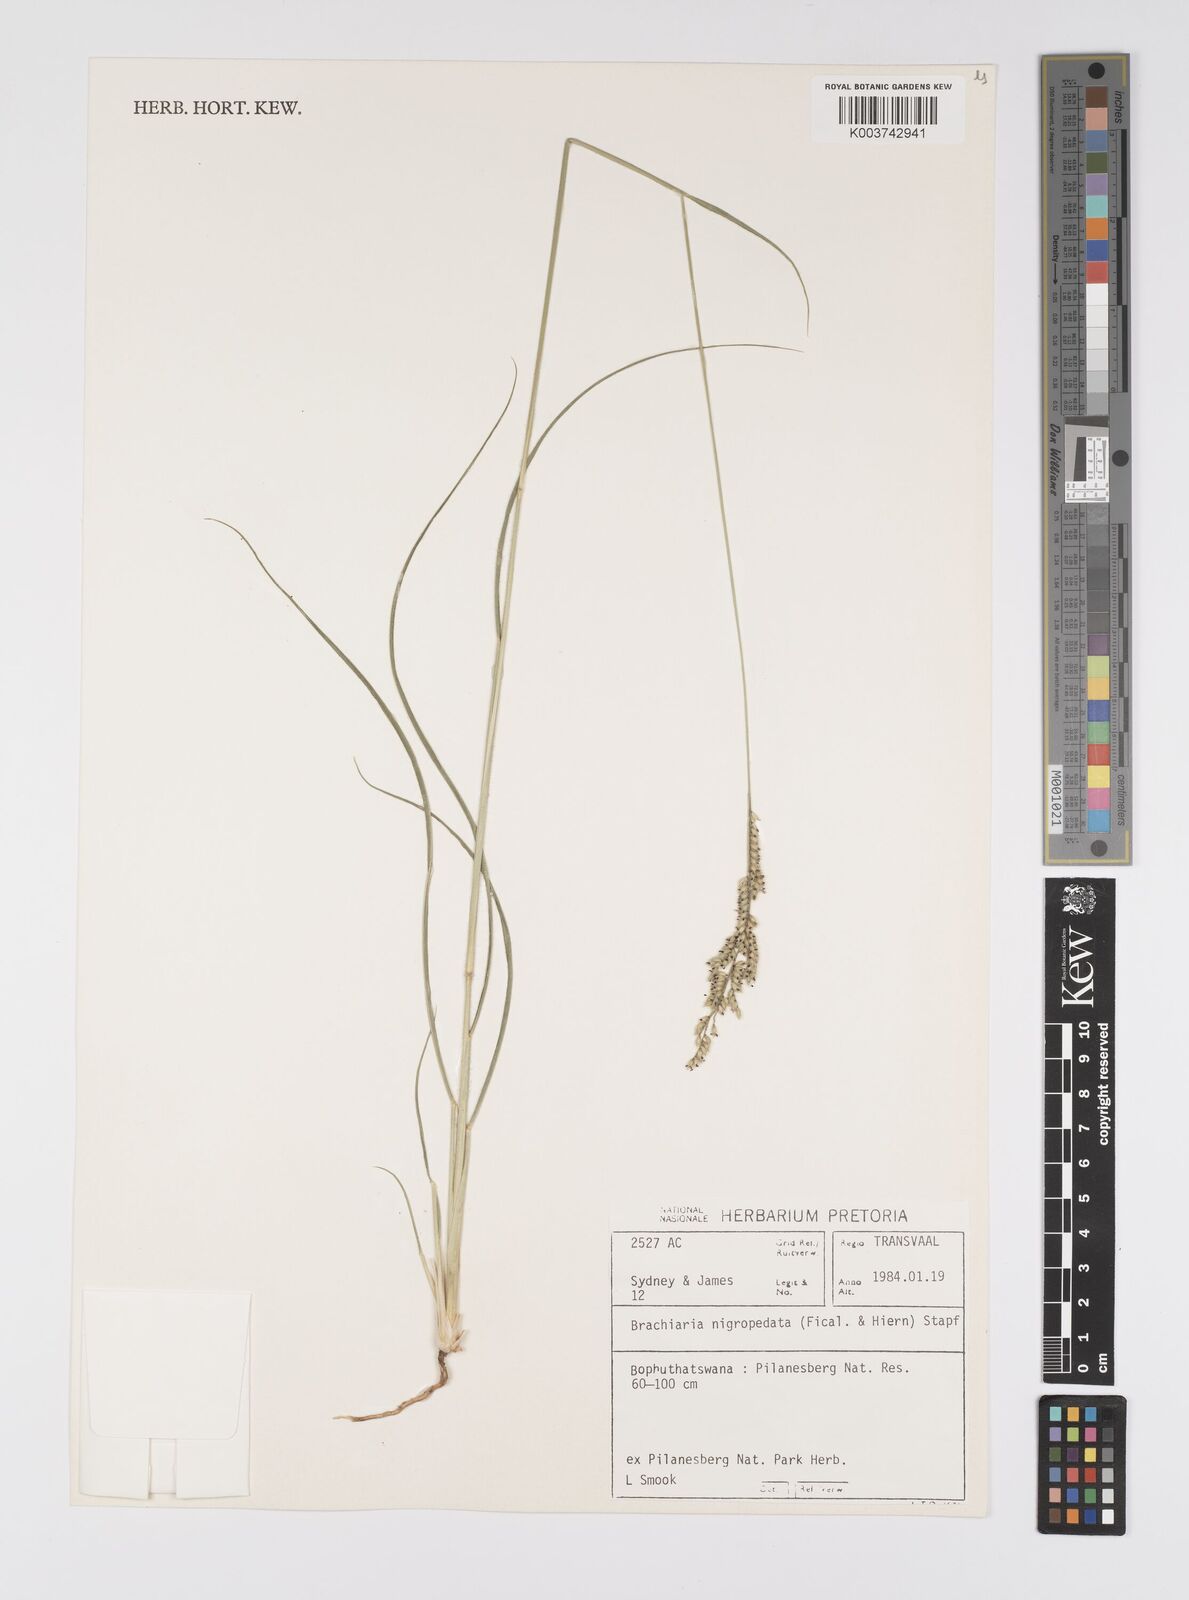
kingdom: Plantae
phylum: Tracheophyta
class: Liliopsida
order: Poales
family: Poaceae
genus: Urochloa
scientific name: Urochloa nigropedata
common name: Spotted signal grass
